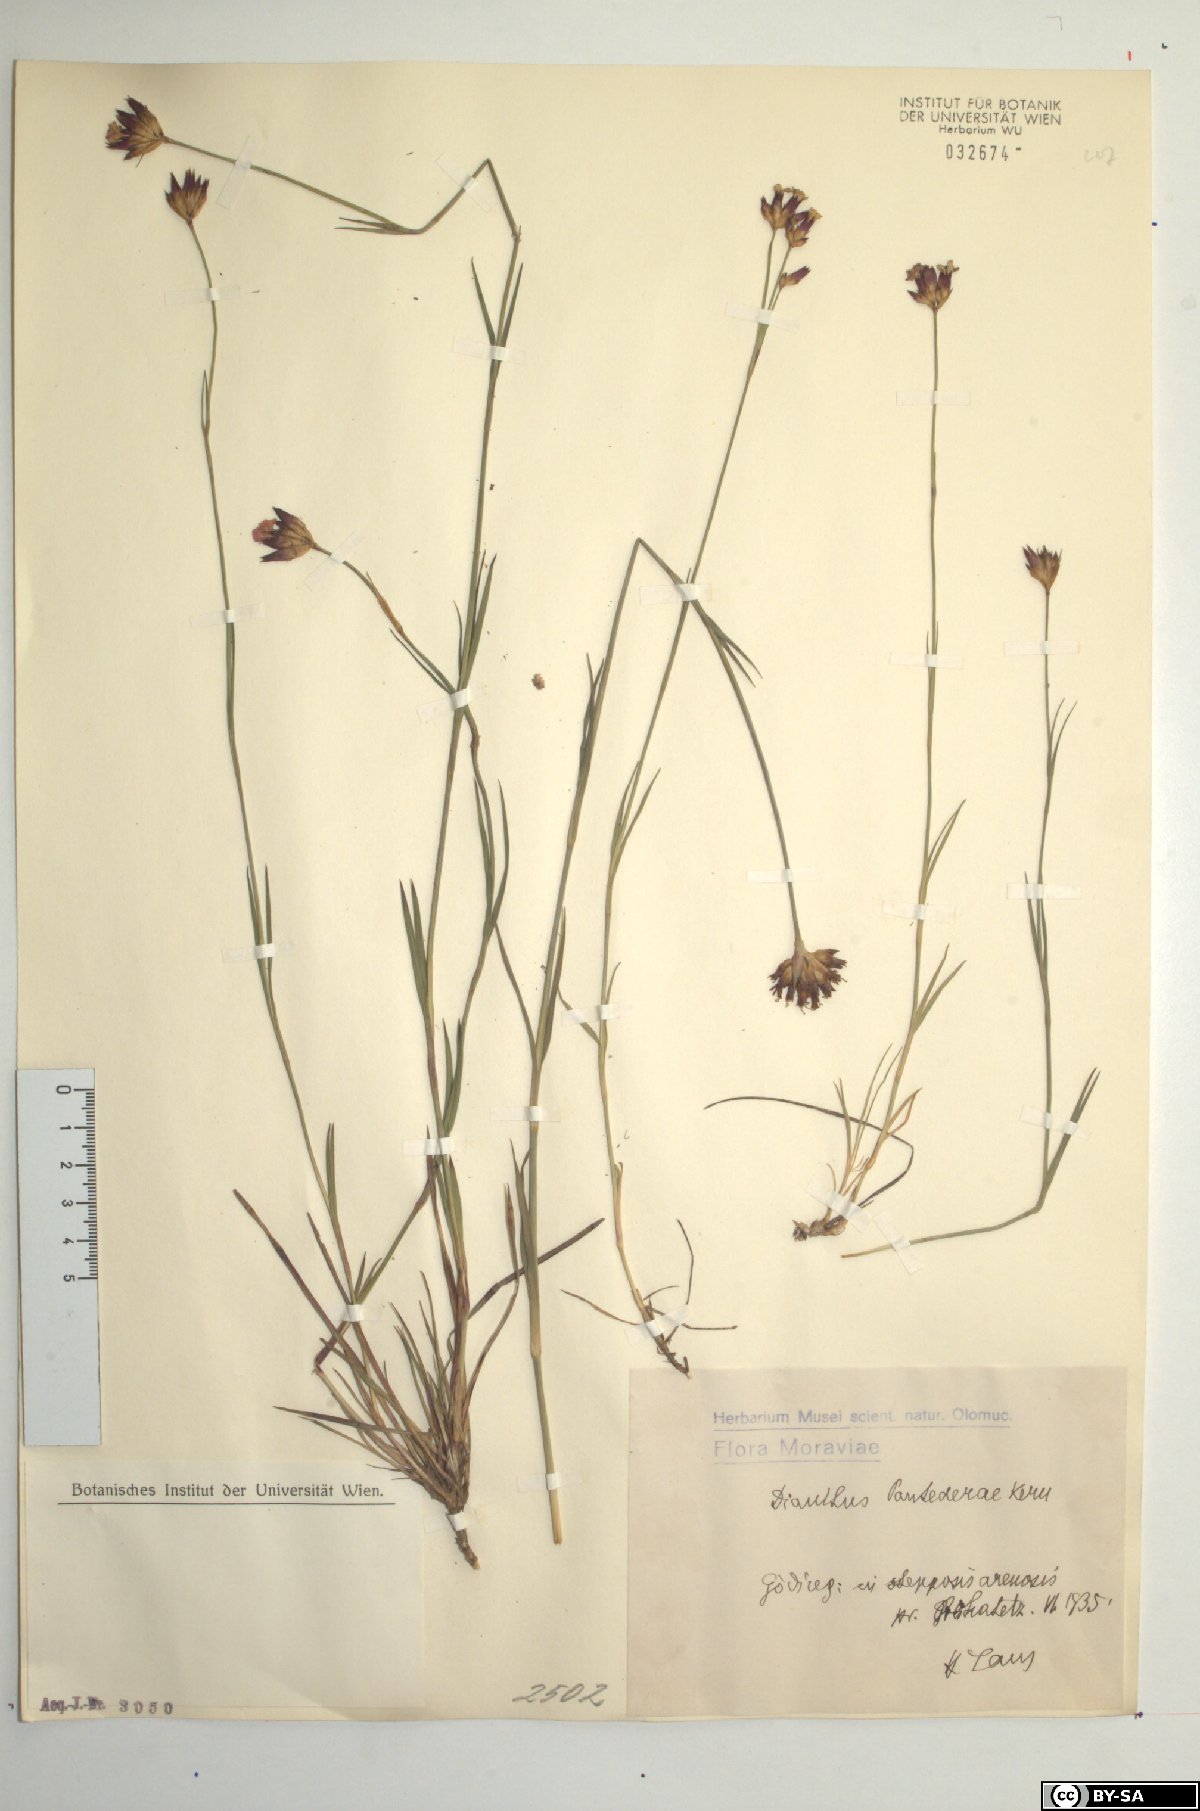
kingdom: Plantae
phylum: Tracheophyta
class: Magnoliopsida
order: Caryophyllales
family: Caryophyllaceae
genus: Dianthus
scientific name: Dianthus pontederae
